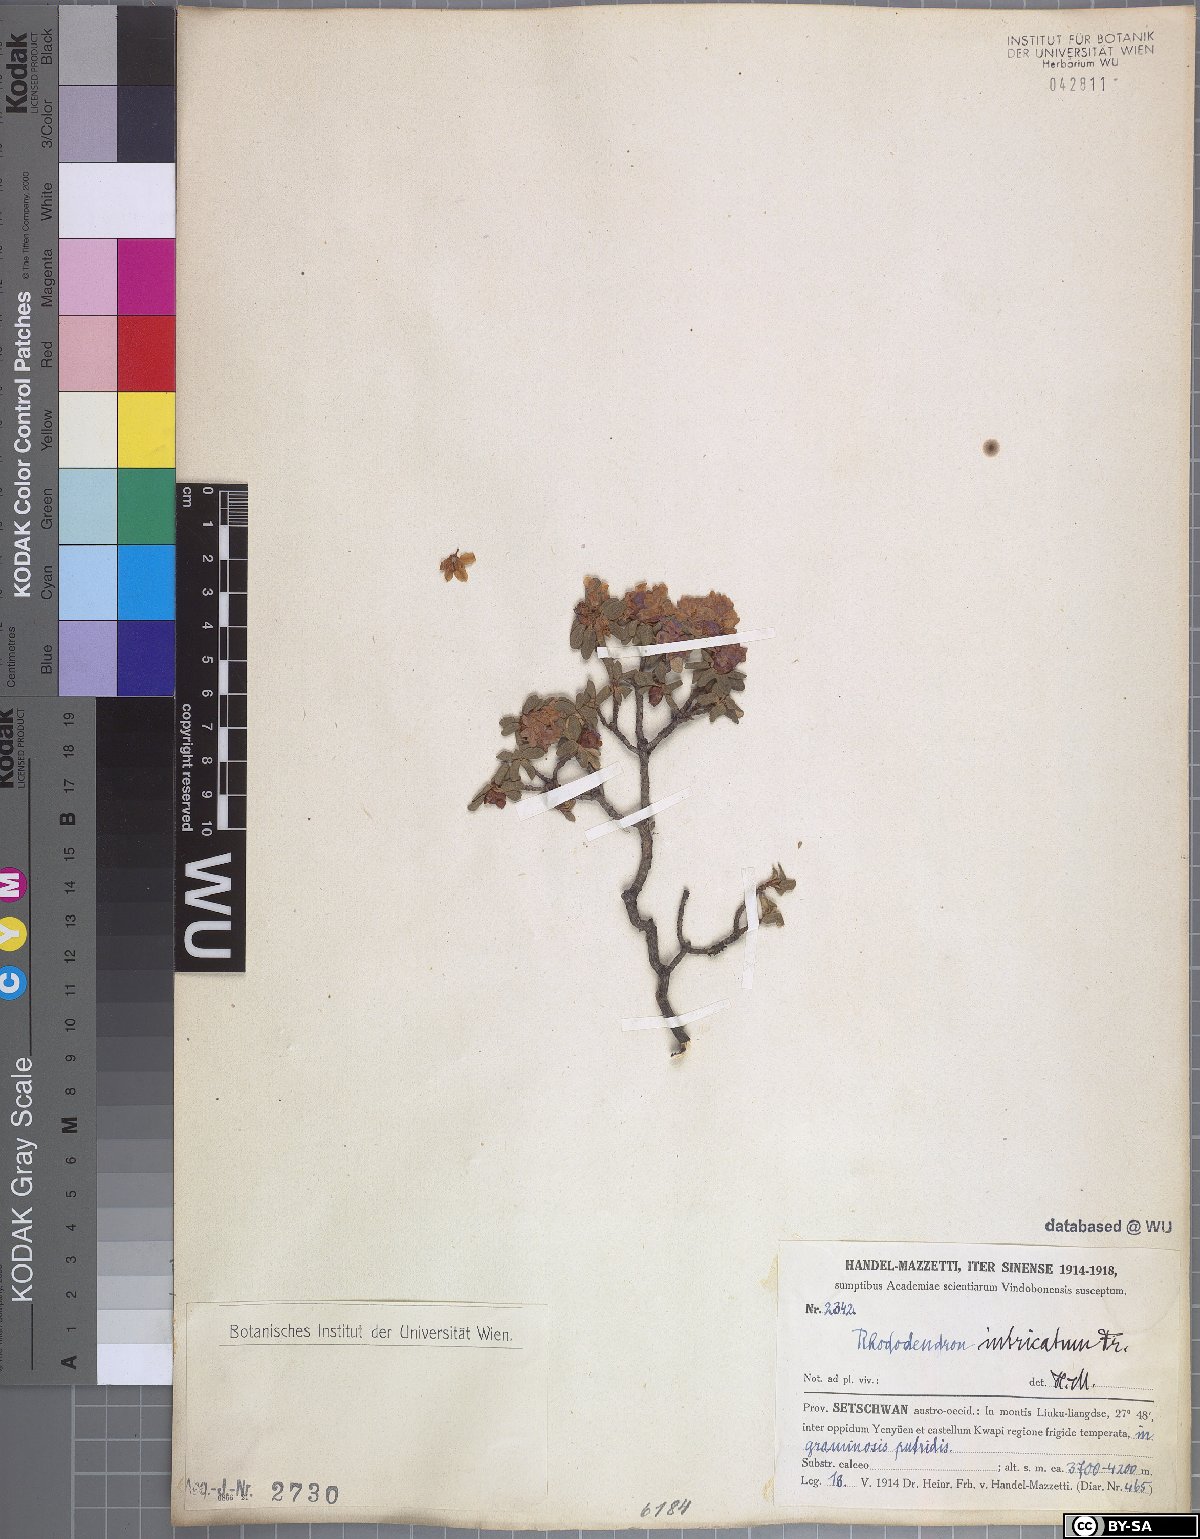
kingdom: Plantae
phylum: Tracheophyta
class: Magnoliopsida
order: Ericales
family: Ericaceae
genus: Rhododendron
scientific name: Rhododendron intricatum
